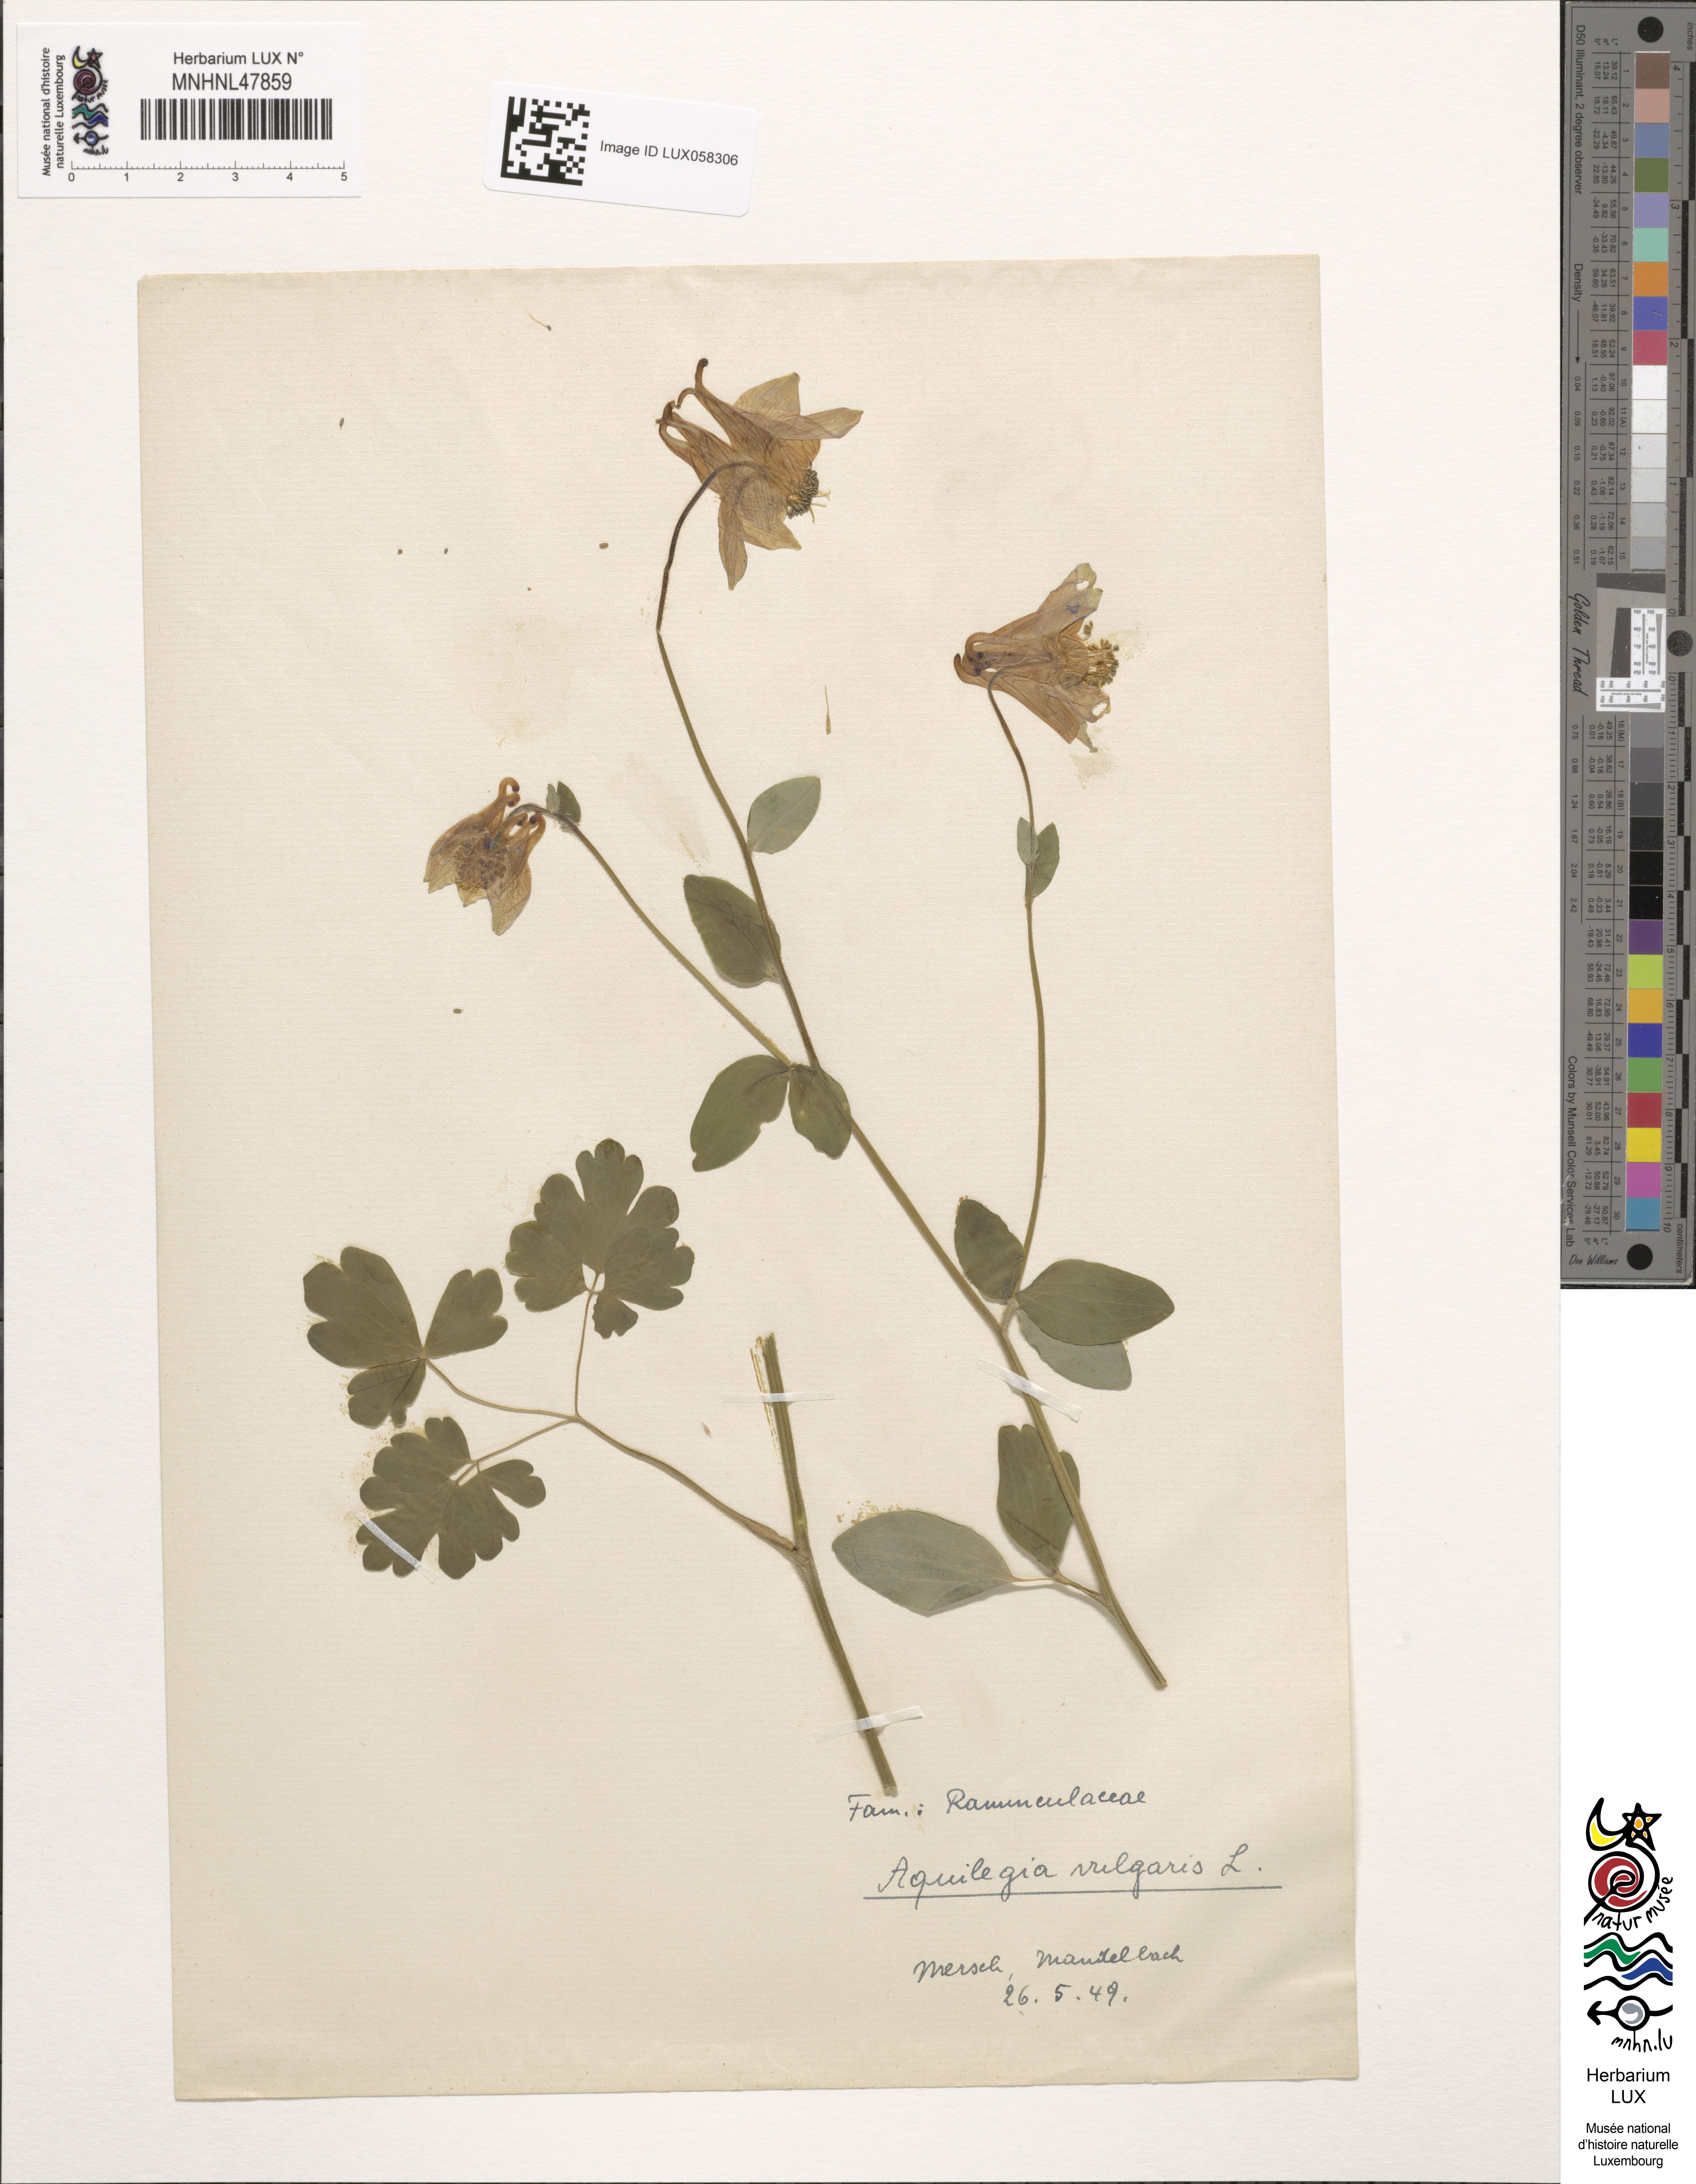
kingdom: Plantae
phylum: Tracheophyta
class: Magnoliopsida
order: Ranunculales
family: Ranunculaceae
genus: Aquilegia
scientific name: Aquilegia vulgaris
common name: Columbine
